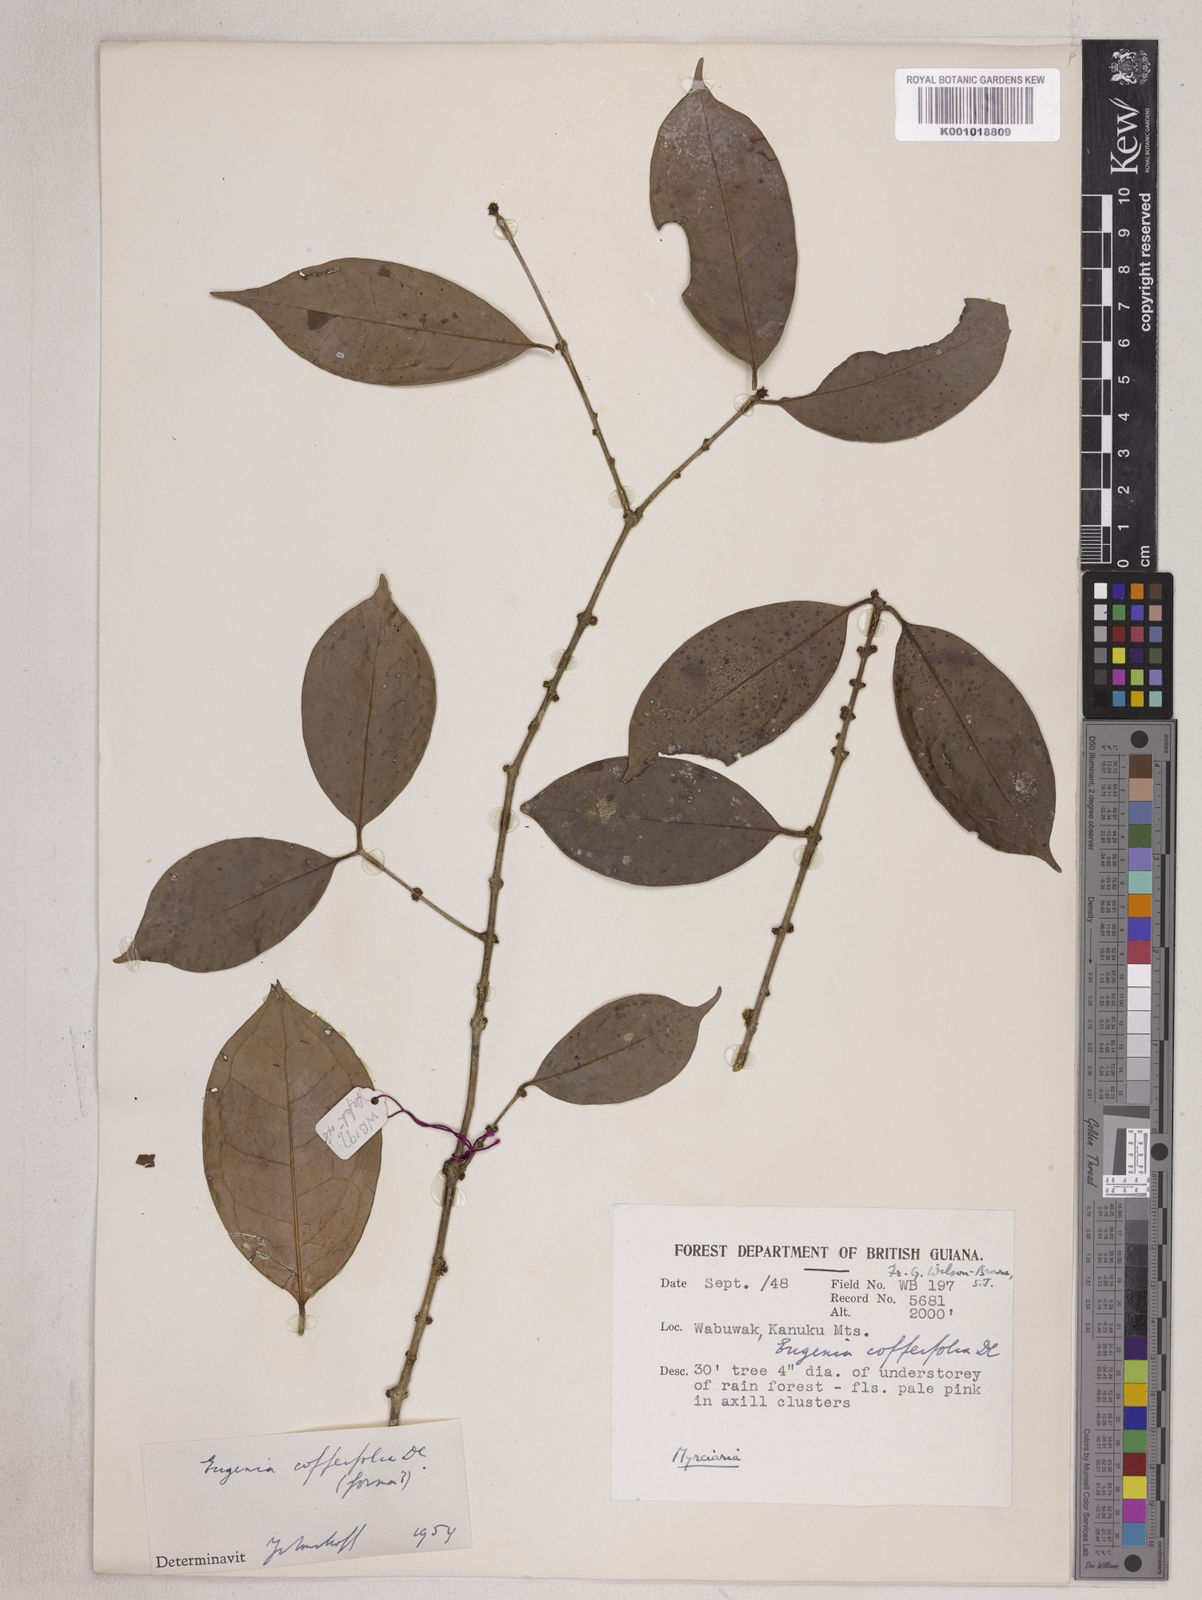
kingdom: Plantae
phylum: Tracheophyta
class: Magnoliopsida
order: Myrtales
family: Myrtaceae
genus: Eugenia
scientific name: Eugenia coffeifolia
